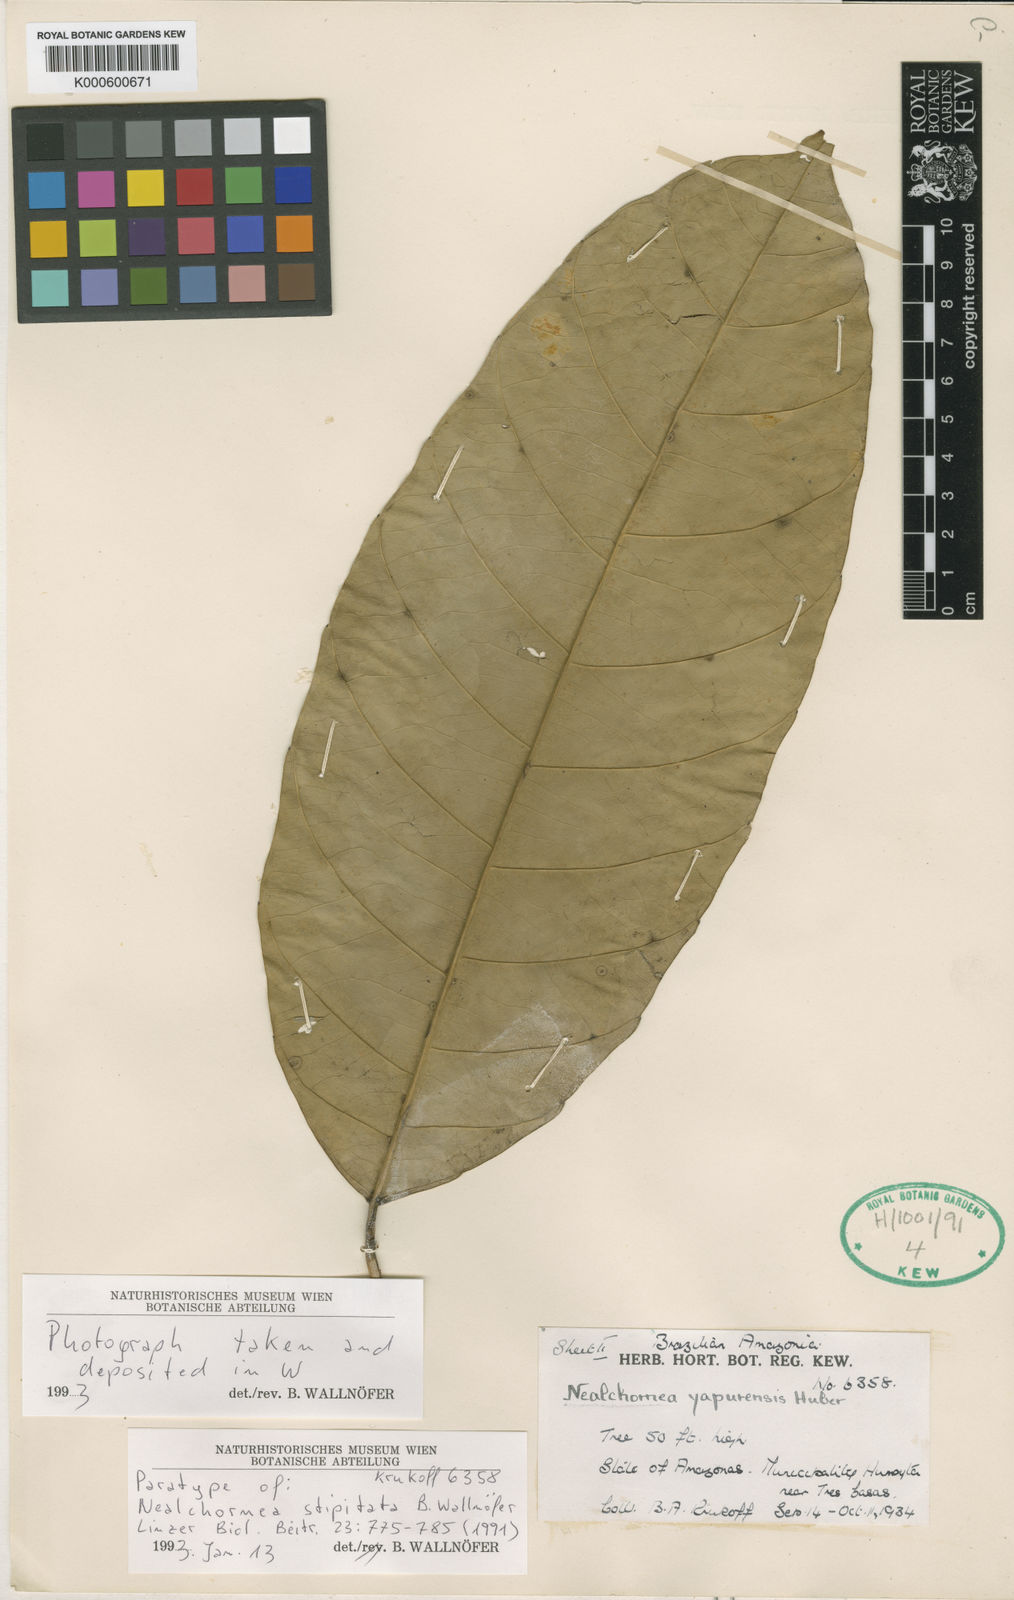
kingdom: Plantae
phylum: Tracheophyta
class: Magnoliopsida
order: Malpighiales
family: Euphorbiaceae
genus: Nealchornea
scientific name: Nealchornea stipitata
